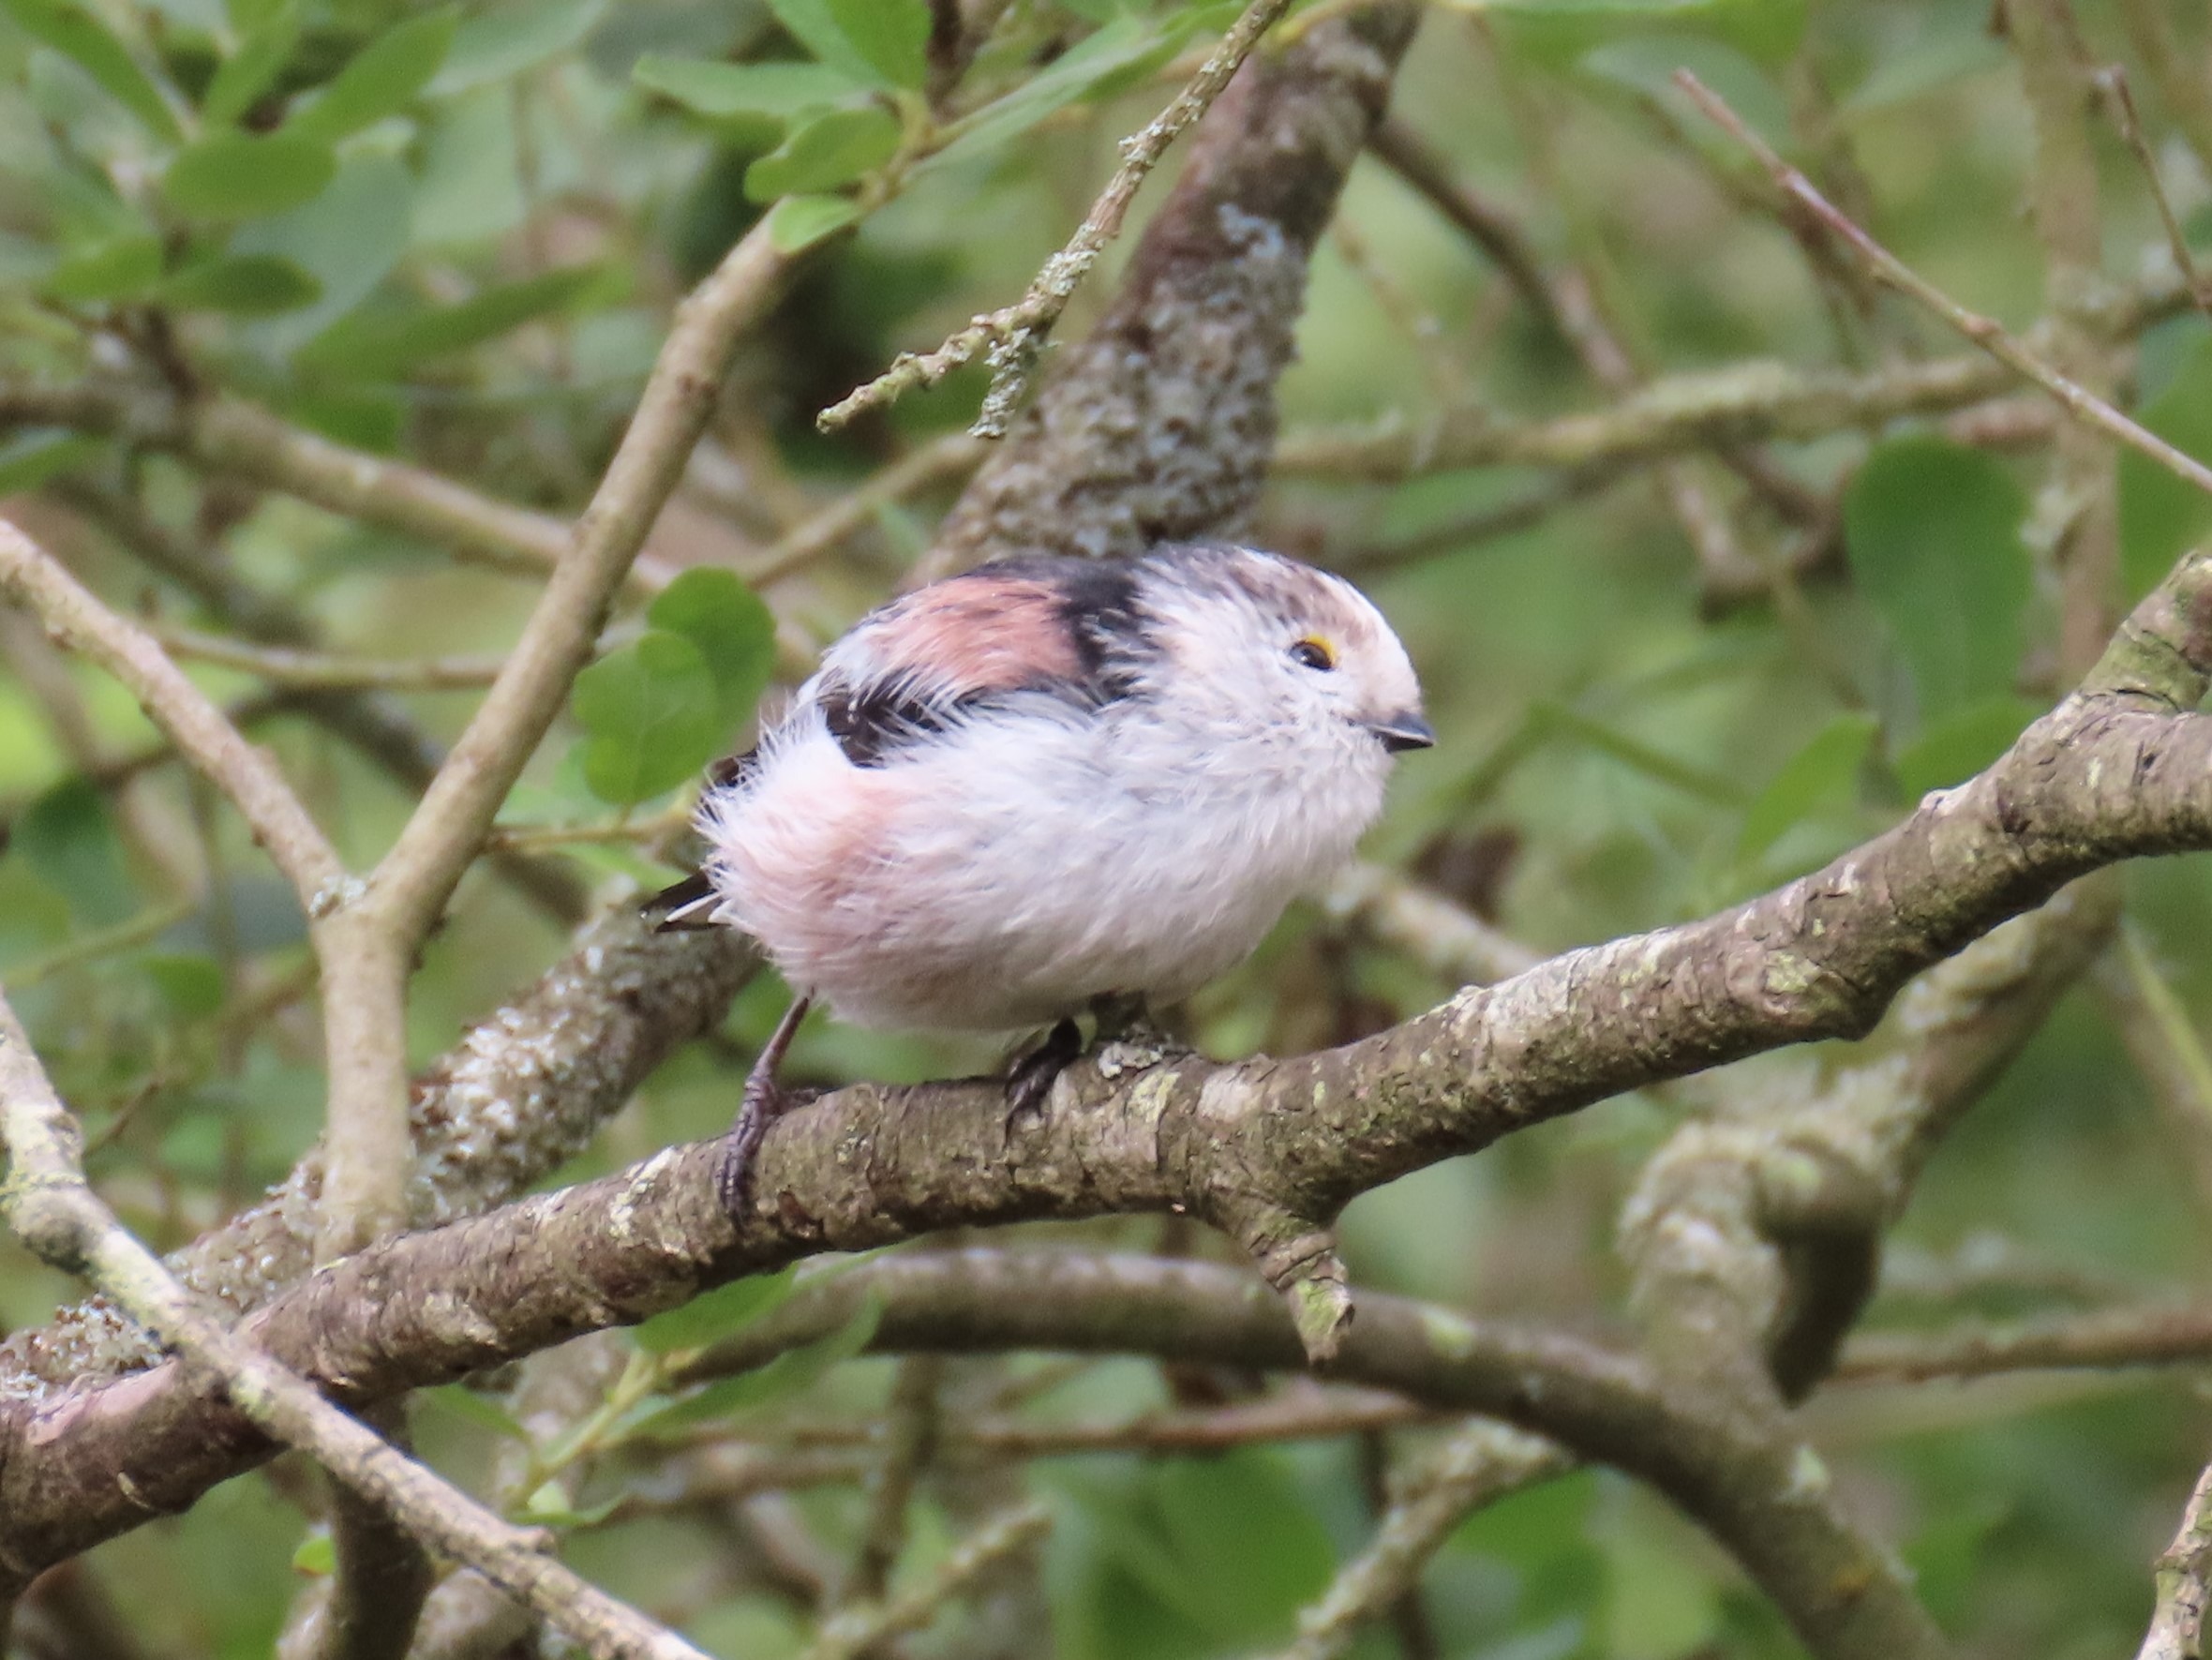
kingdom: Animalia
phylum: Chordata
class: Aves
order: Passeriformes
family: Aegithalidae
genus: Aegithalos
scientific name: Aegithalos caudatus
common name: Halemejse
